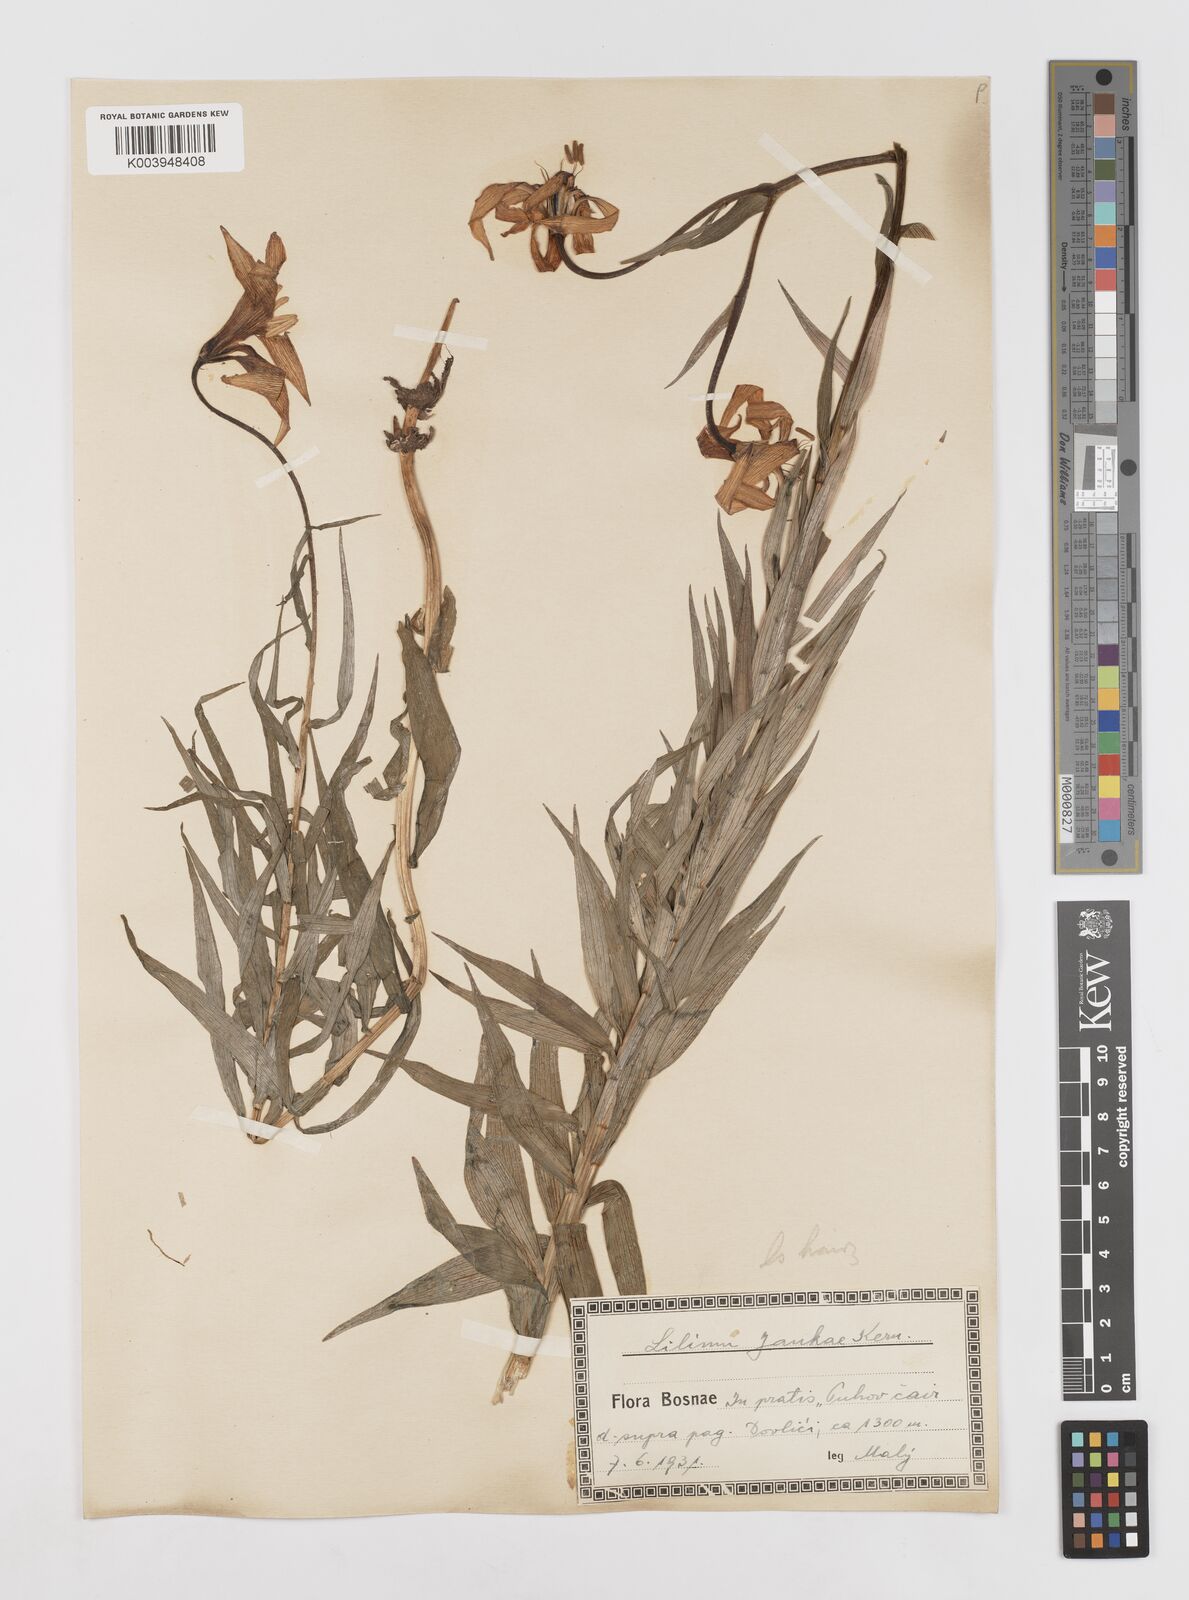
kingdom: Plantae
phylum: Tracheophyta
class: Liliopsida
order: Liliales
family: Liliaceae
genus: Lilium
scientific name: Lilium jankae
